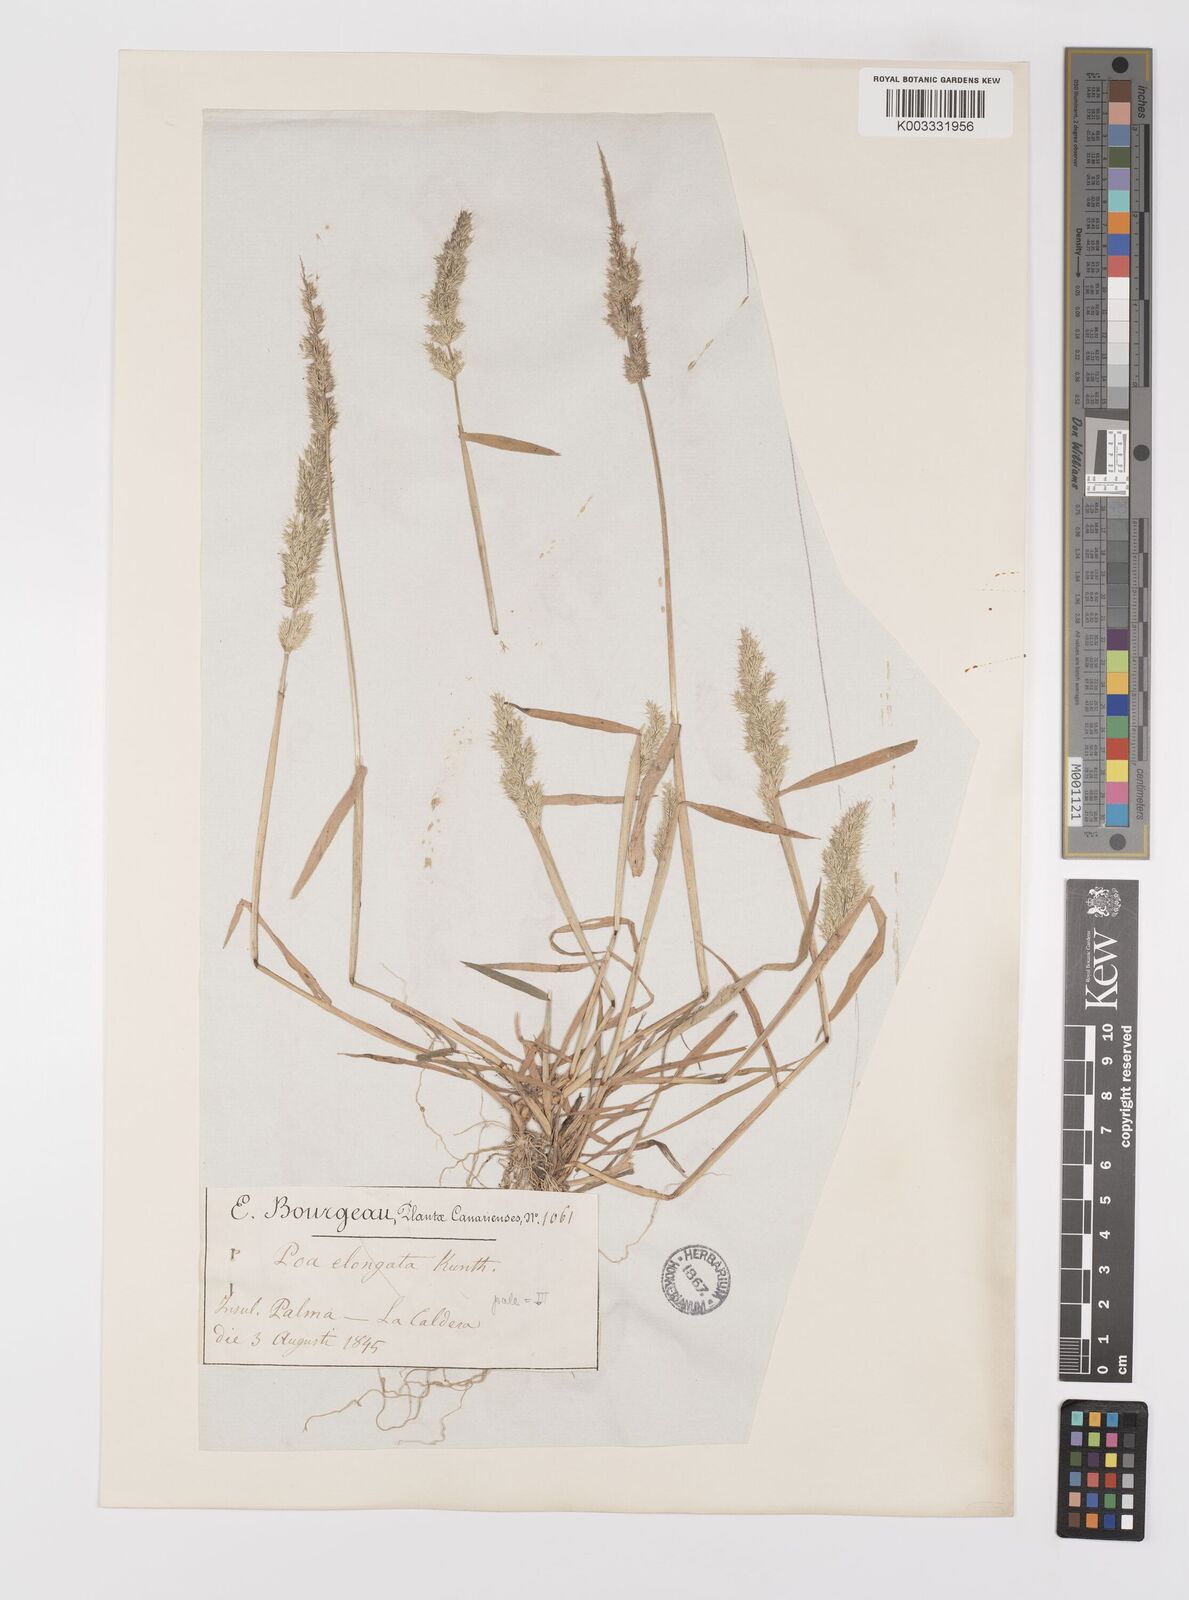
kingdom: Plantae
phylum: Tracheophyta
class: Liliopsida
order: Poales
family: Poaceae
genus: Polypogon
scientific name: Polypogon fugax
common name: Asia minor bluegrass
